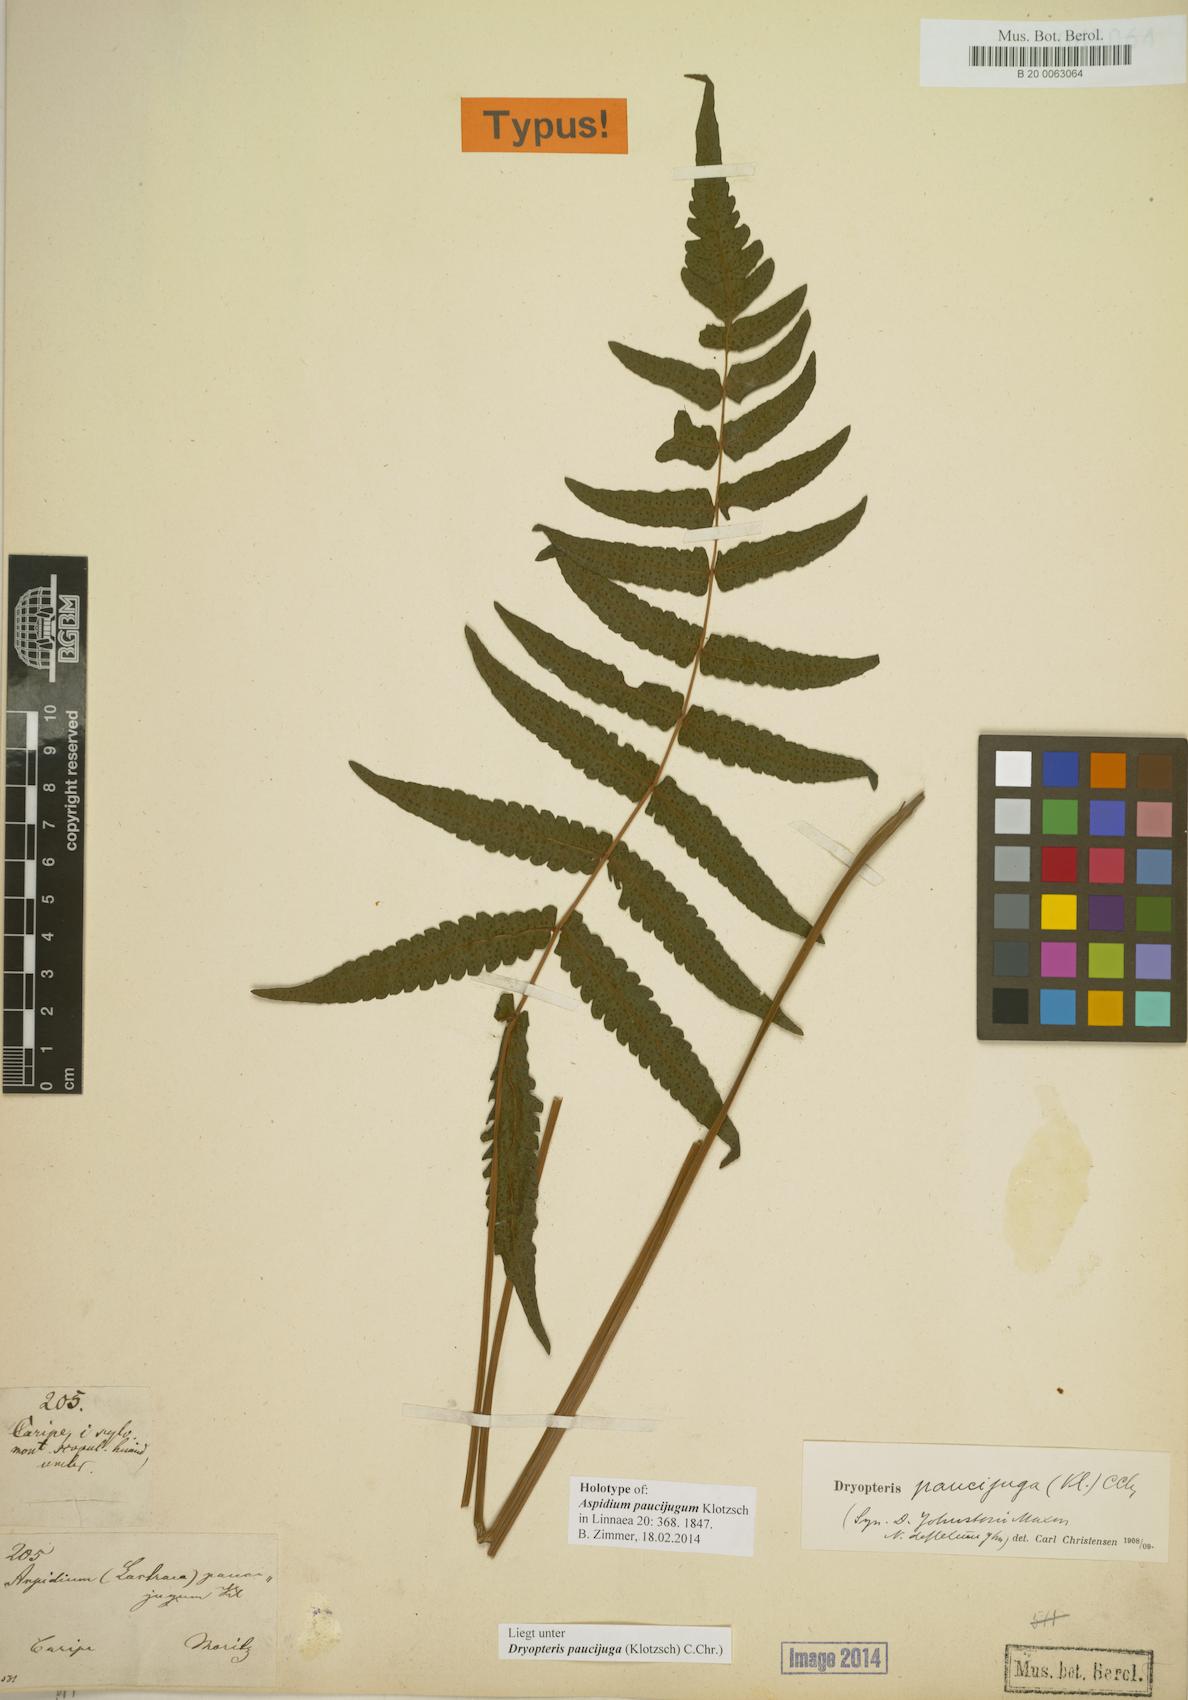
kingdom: Plantae
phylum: Tracheophyta
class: Polypodiopsida
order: Polypodiales
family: Thelypteridaceae
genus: Goniopteris
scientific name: Goniopteris paucijuga
